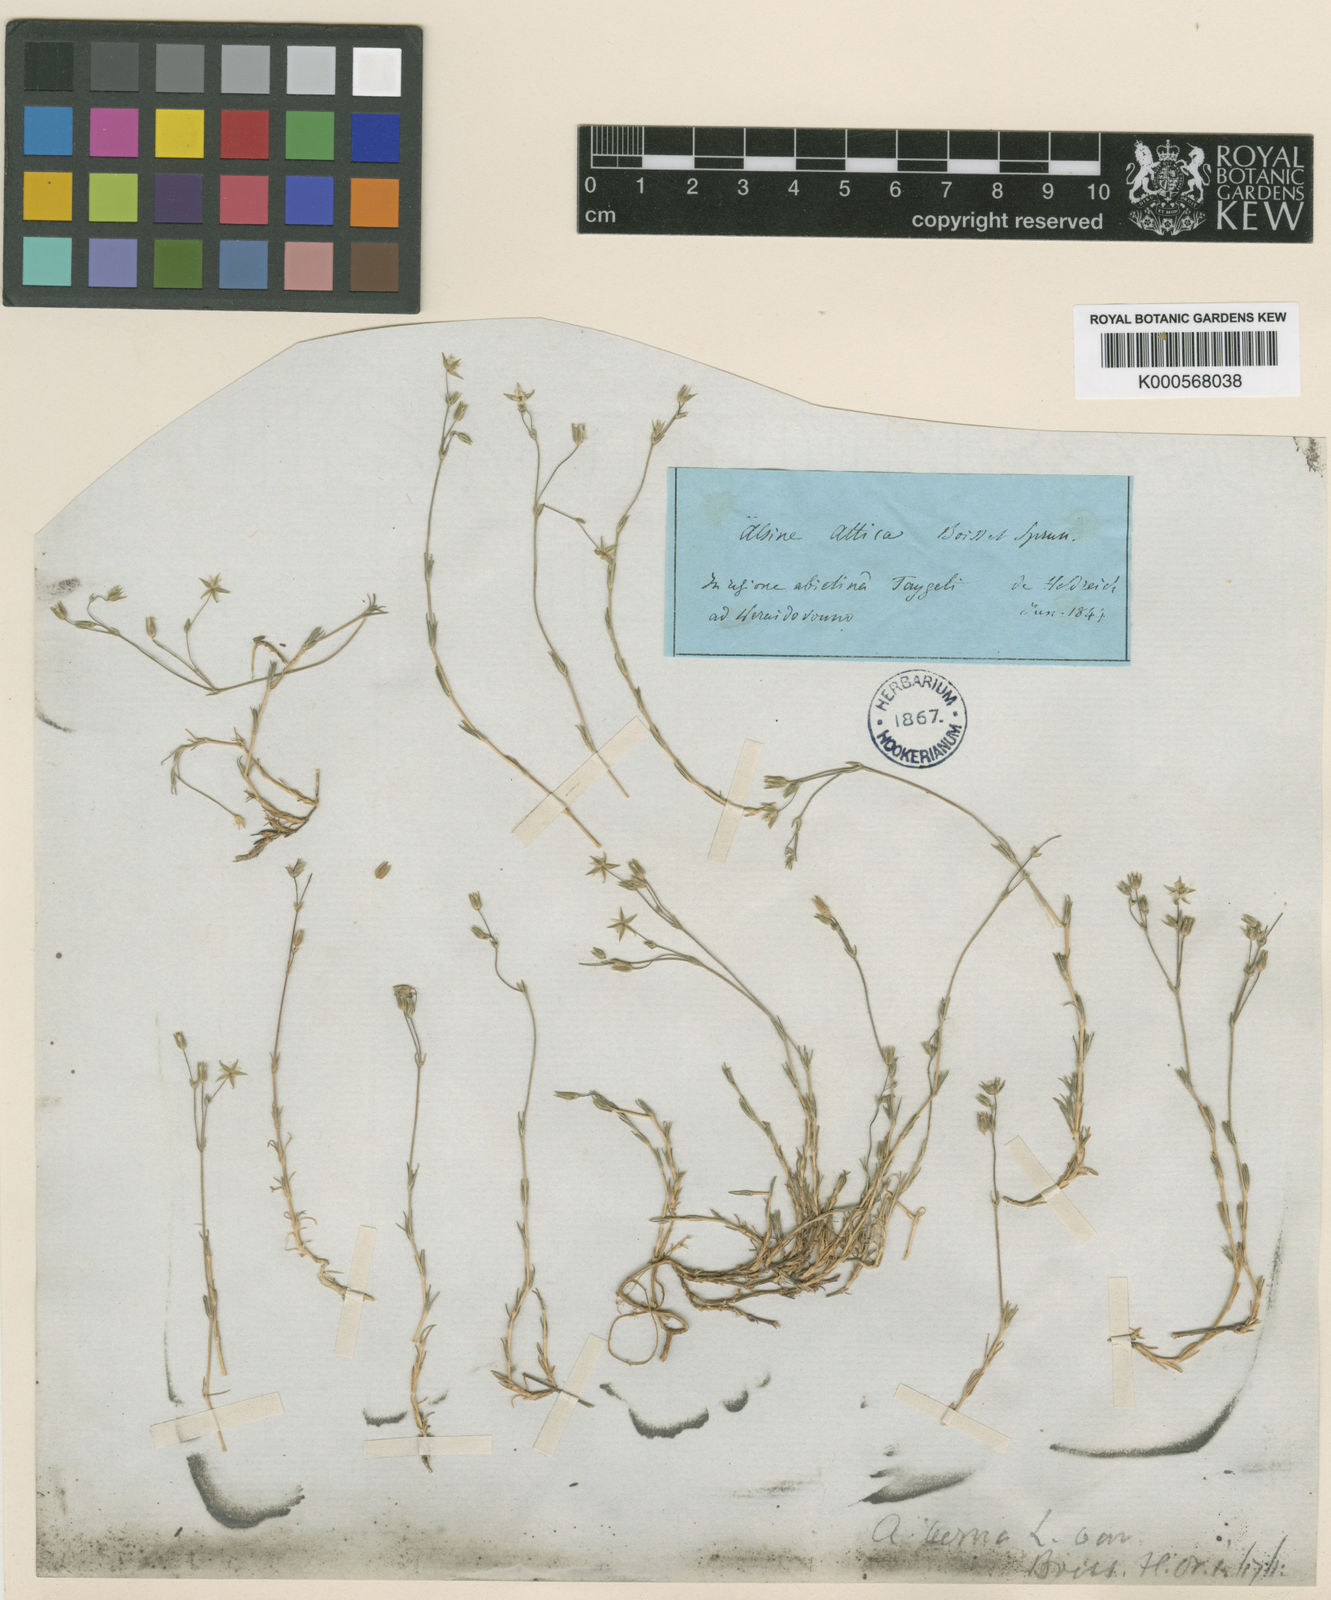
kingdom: Plantae
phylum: Tracheophyta
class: Magnoliopsida
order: Caryophyllales
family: Caryophyllaceae
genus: Sabulina
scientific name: Sabulina verna
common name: Spring sandwort
